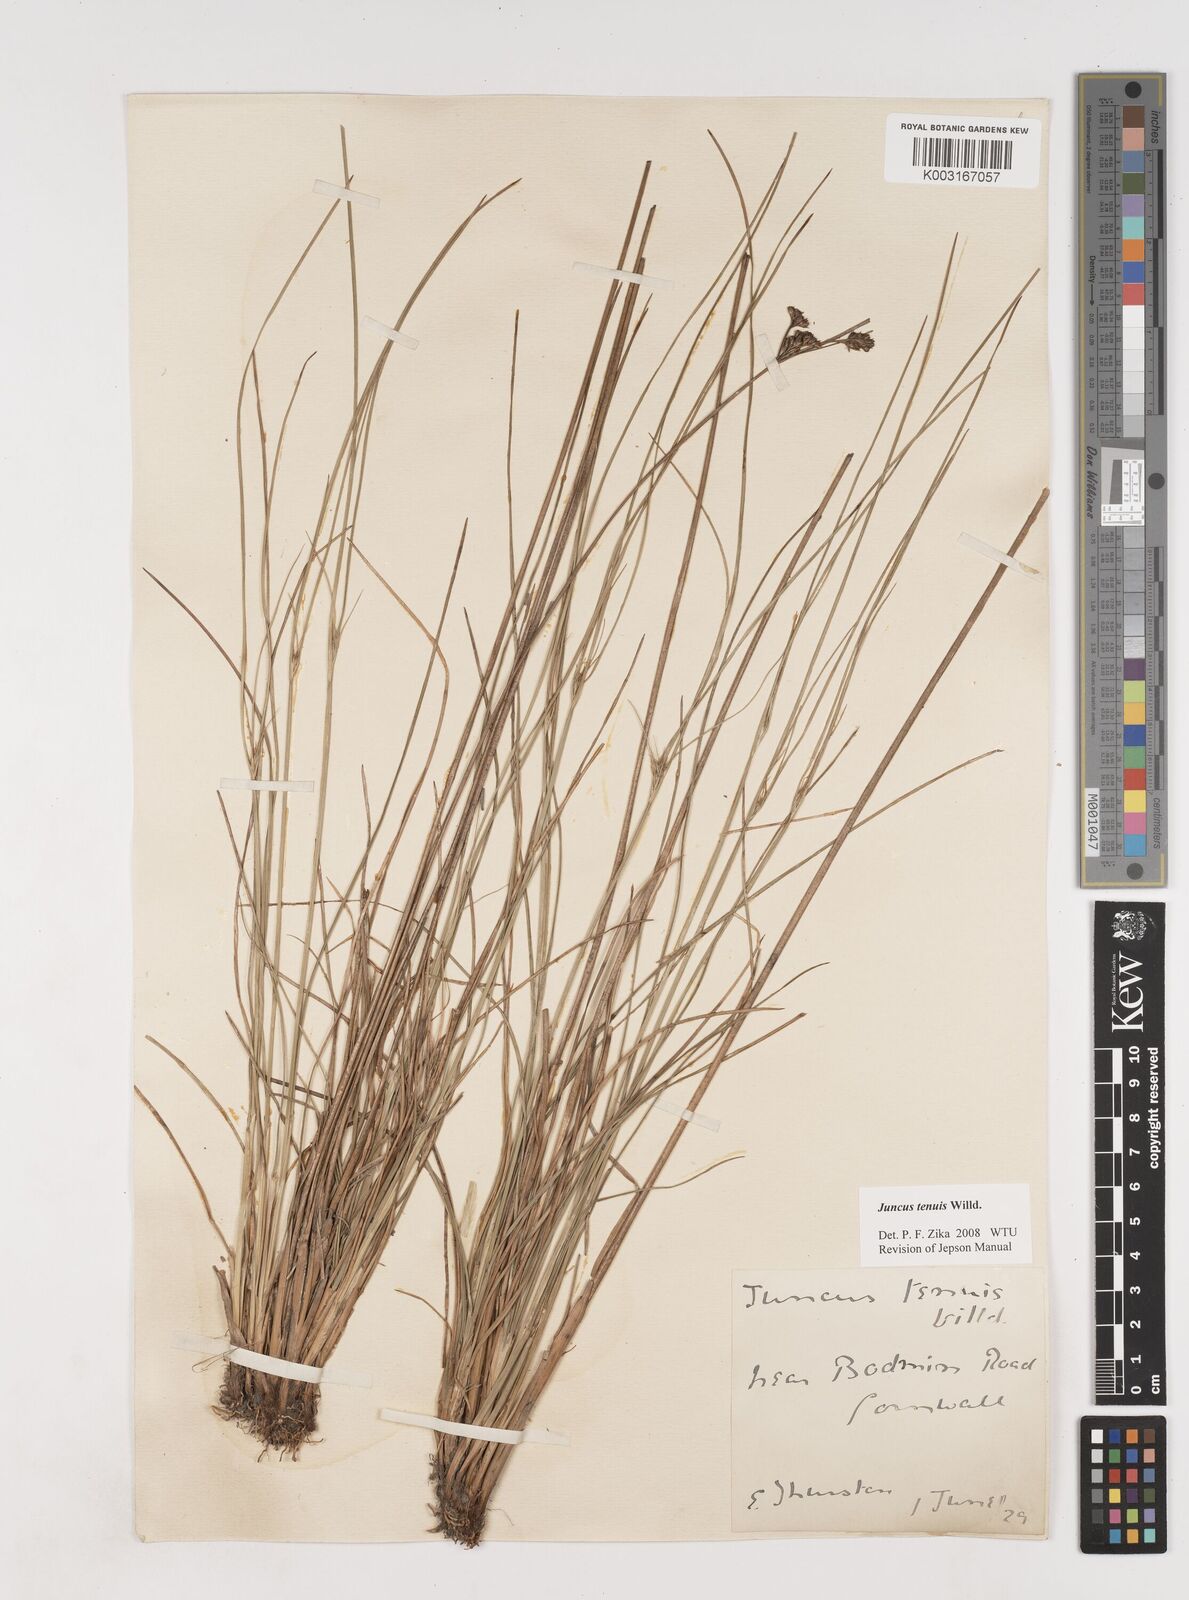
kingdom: Plantae
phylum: Tracheophyta
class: Liliopsida
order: Poales
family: Juncaceae
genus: Juncus
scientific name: Juncus tenuis
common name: Slender rush
